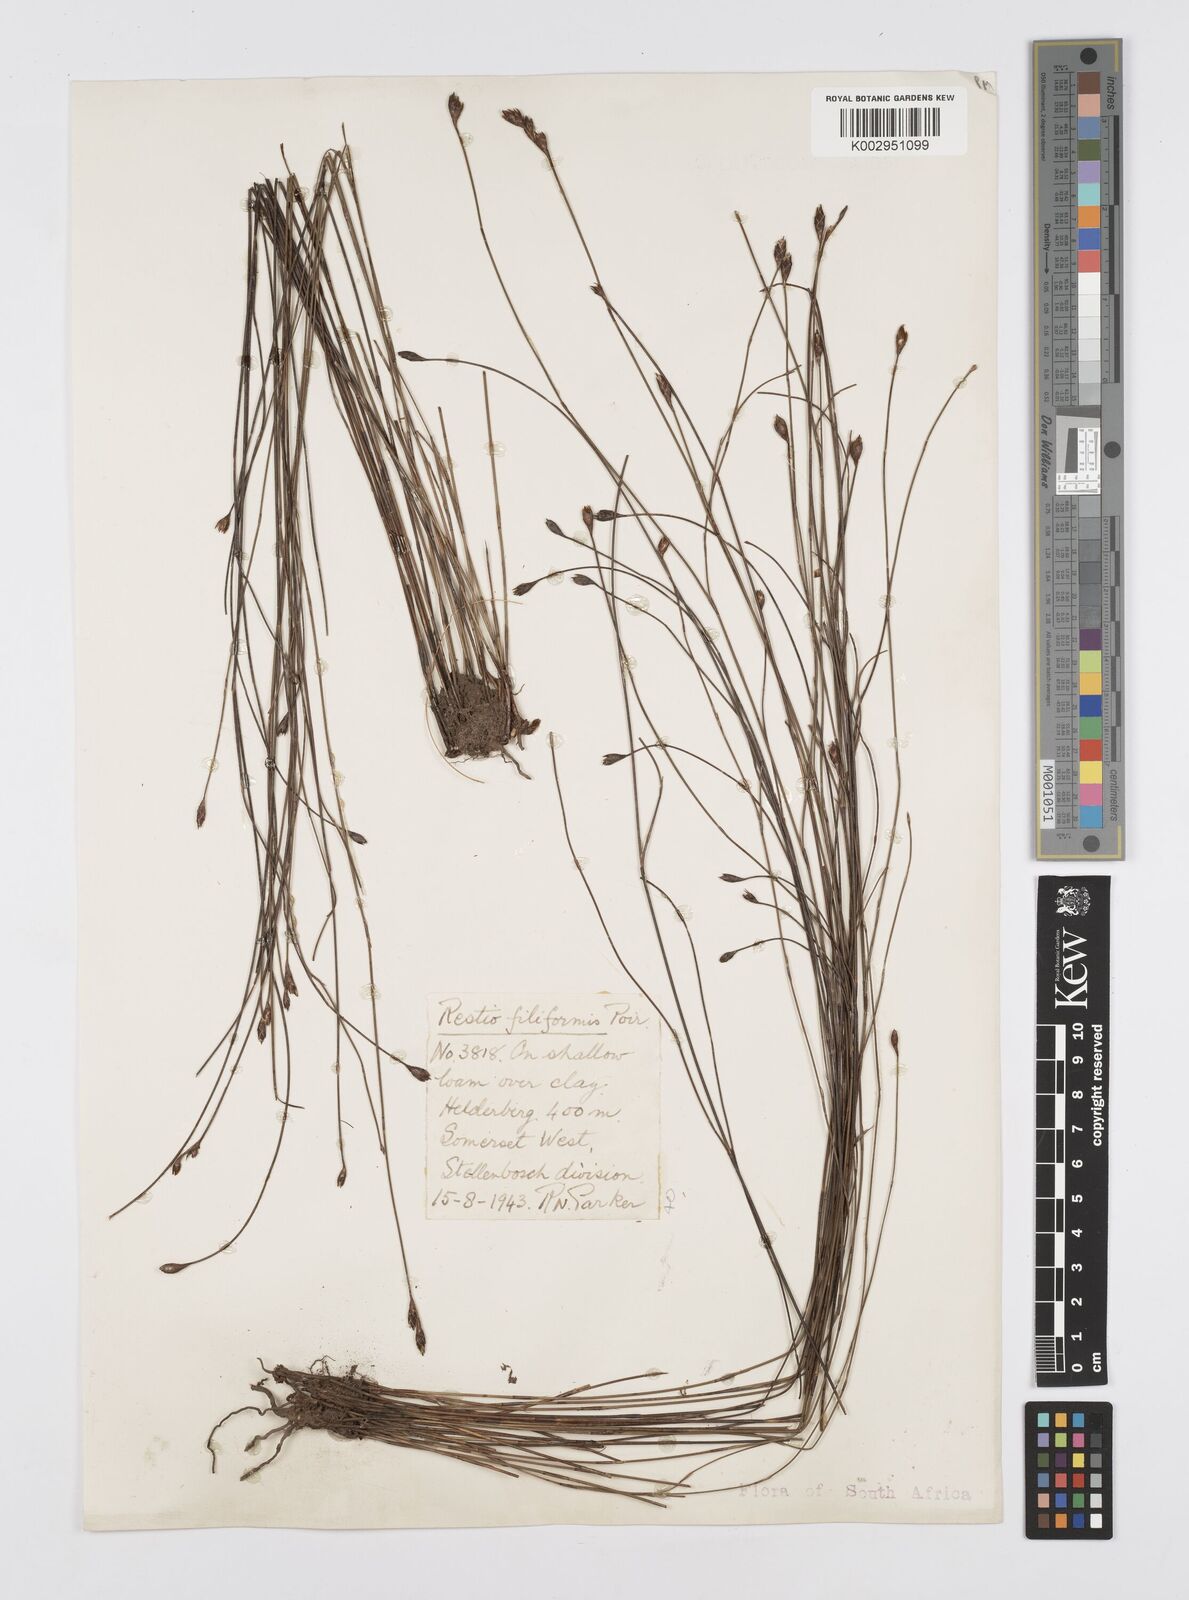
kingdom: Plantae
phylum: Tracheophyta
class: Liliopsida
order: Poales
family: Restionaceae
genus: Restio
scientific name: Restio filiformis
